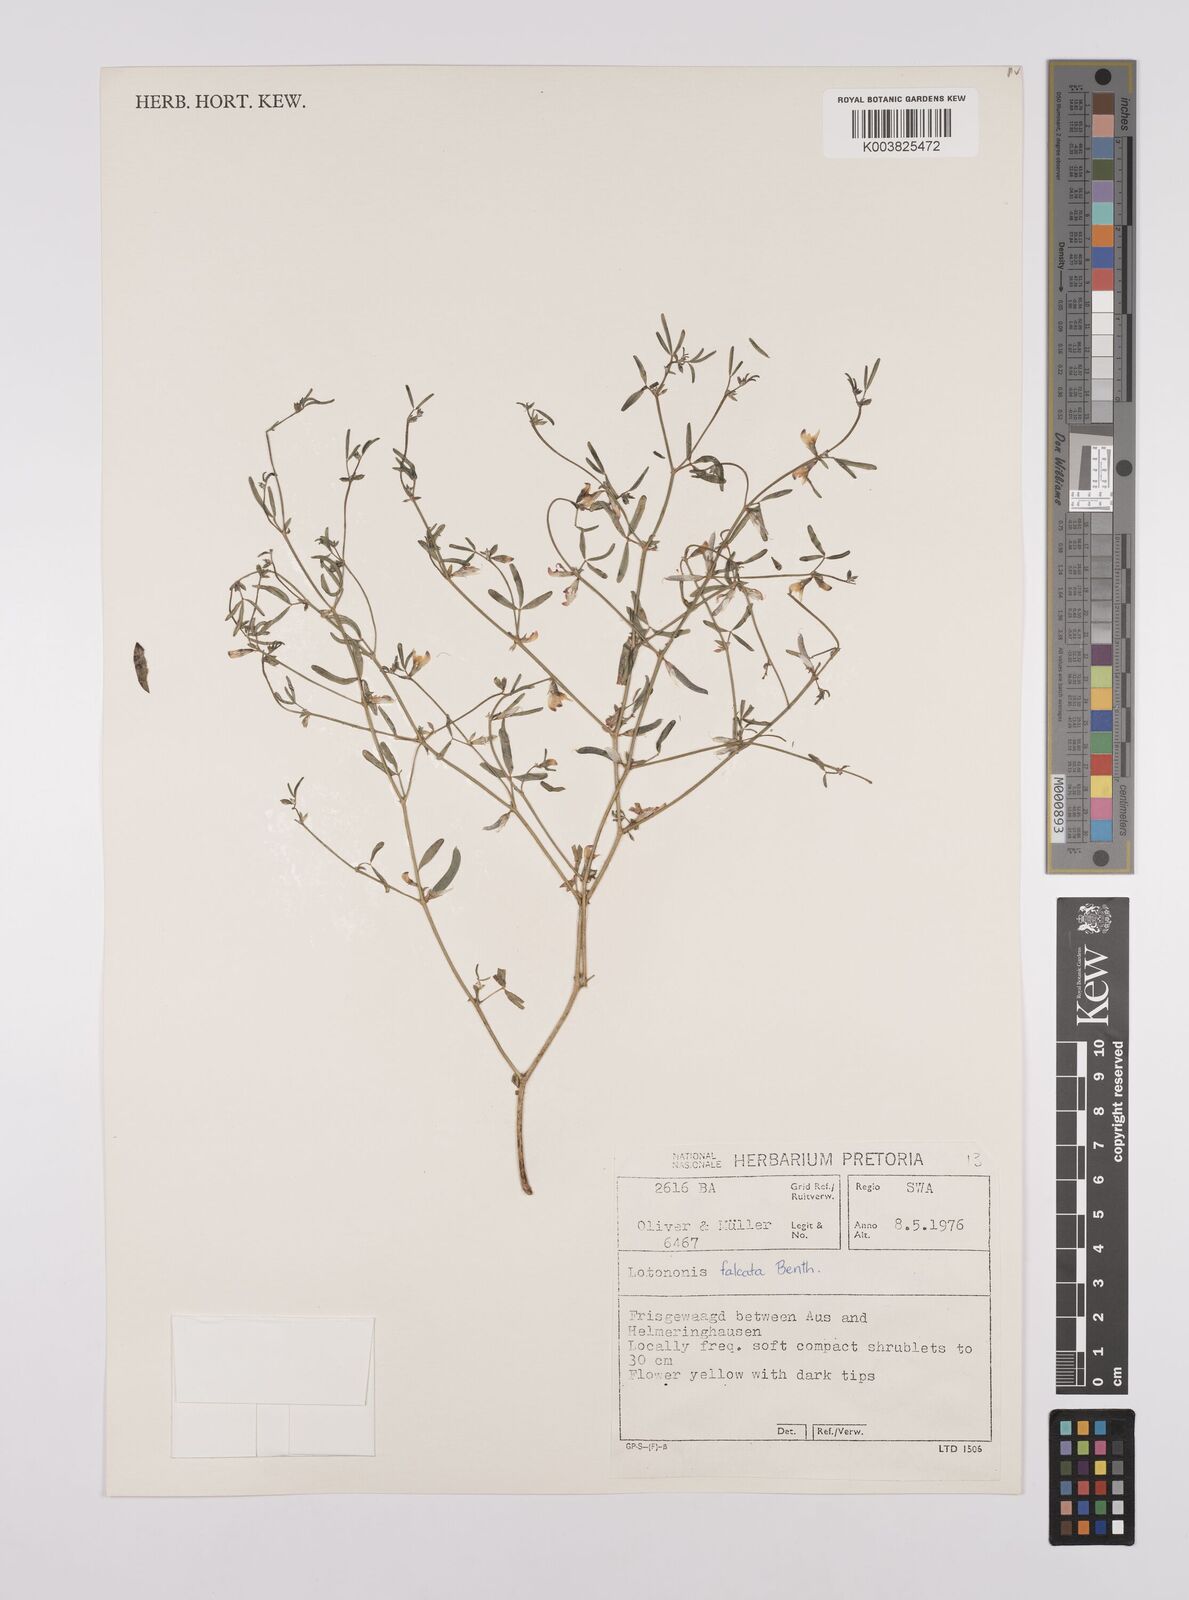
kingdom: Plantae
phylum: Tracheophyta
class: Magnoliopsida
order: Fabales
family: Fabaceae
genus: Lotononis
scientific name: Lotononis falcata
